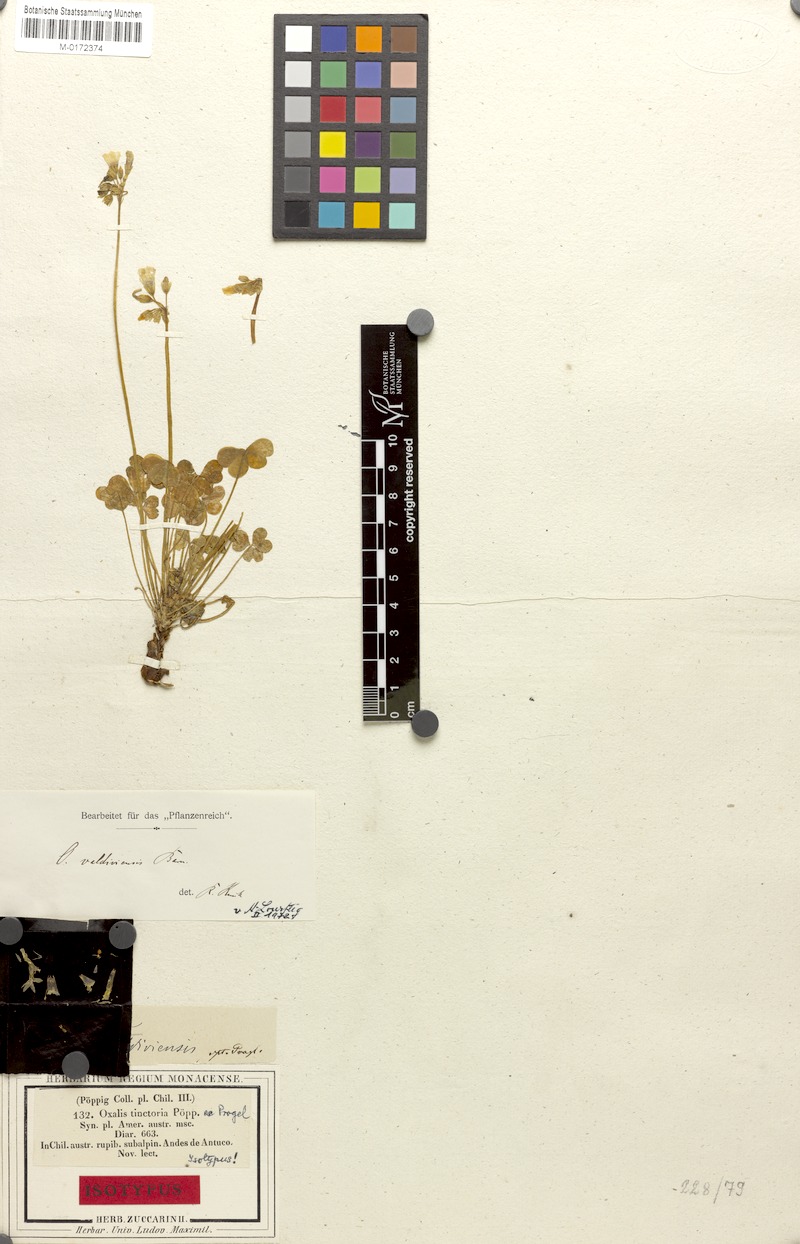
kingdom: Plantae
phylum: Tracheophyta
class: Magnoliopsida
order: Oxalidales
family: Oxalidaceae
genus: Oxalis
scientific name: Oxalis valdiviensis
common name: Chilean yellow-sorrel
